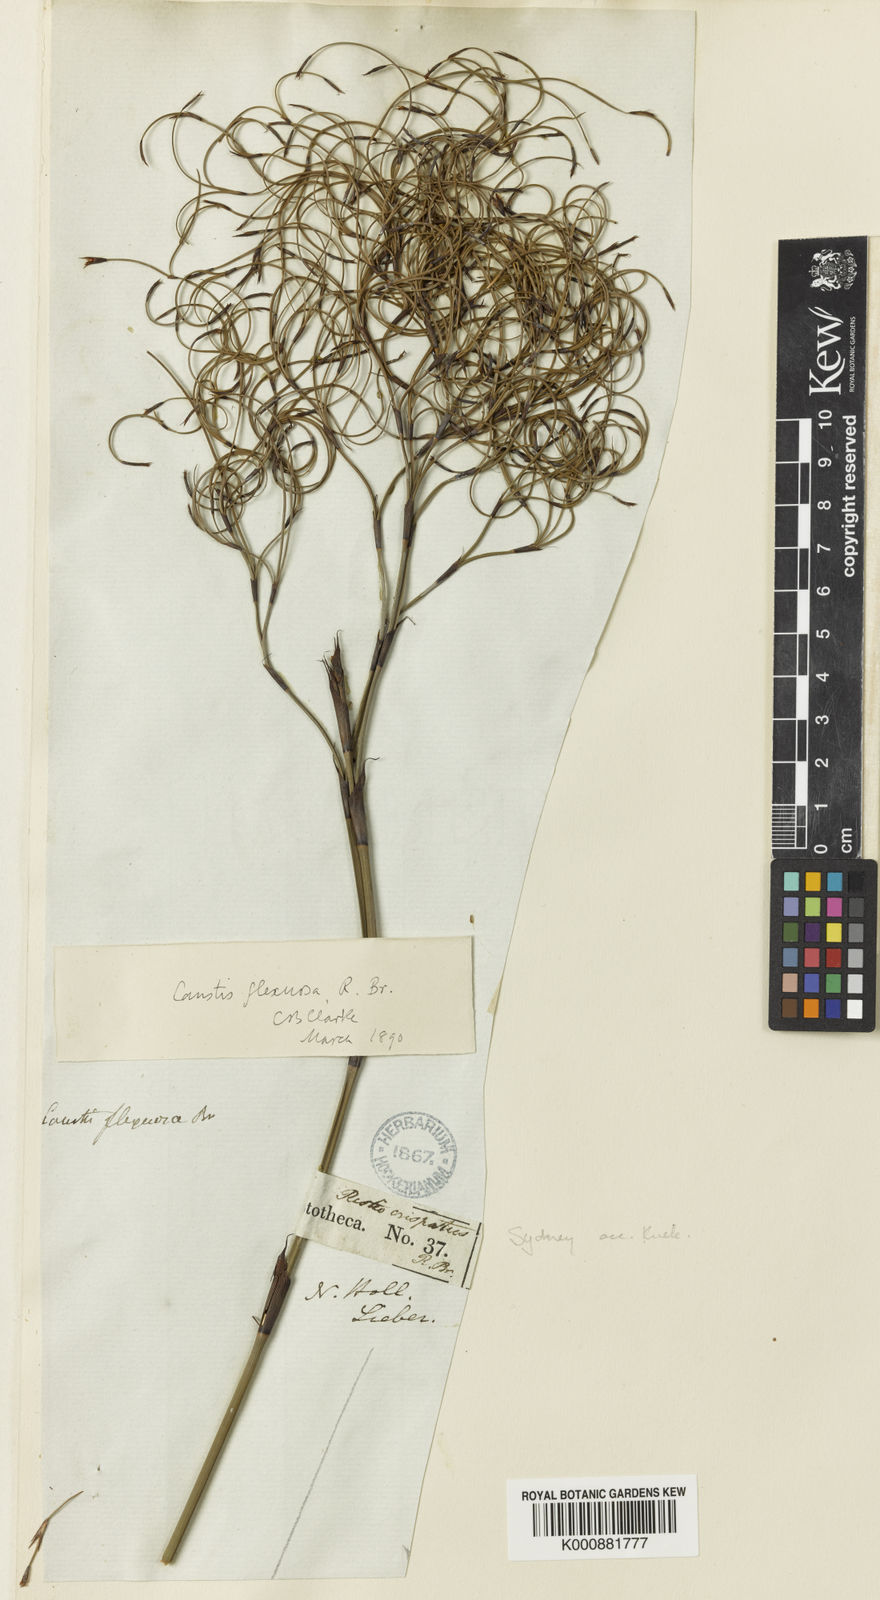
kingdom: Plantae
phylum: Tracheophyta
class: Liliopsida
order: Poales
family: Cyperaceae
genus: Caustis
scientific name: Caustis flexuosa
